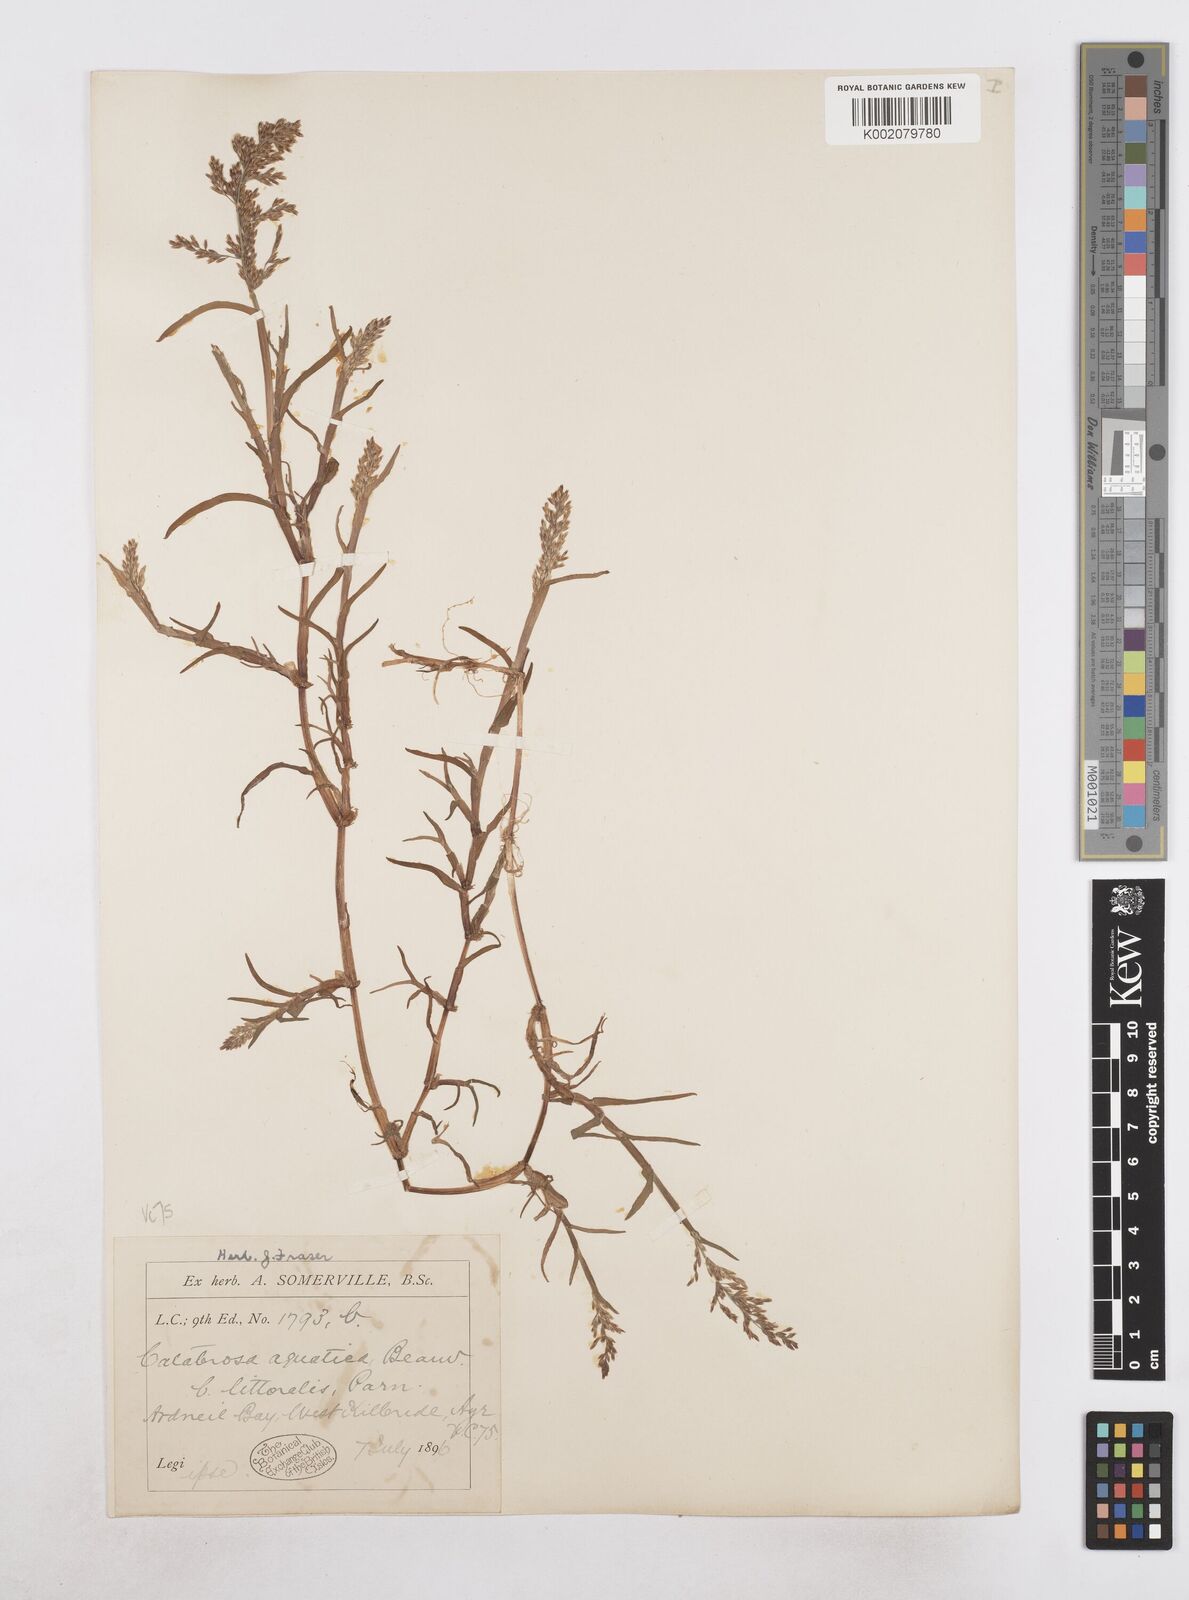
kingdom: Plantae
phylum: Tracheophyta
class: Liliopsida
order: Poales
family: Poaceae
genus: Catabrosa
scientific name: Catabrosa aquatica
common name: Whorl-grass
